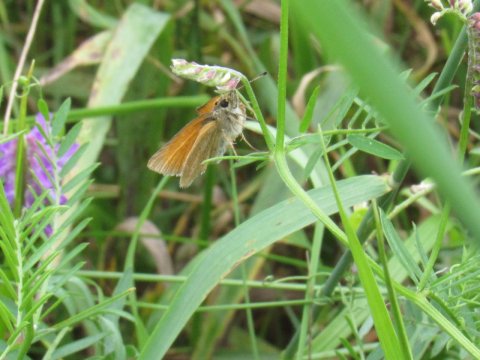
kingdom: Animalia
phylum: Arthropoda
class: Insecta
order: Lepidoptera
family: Hesperiidae
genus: Thymelicus
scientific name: Thymelicus lineola
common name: European Skipper
